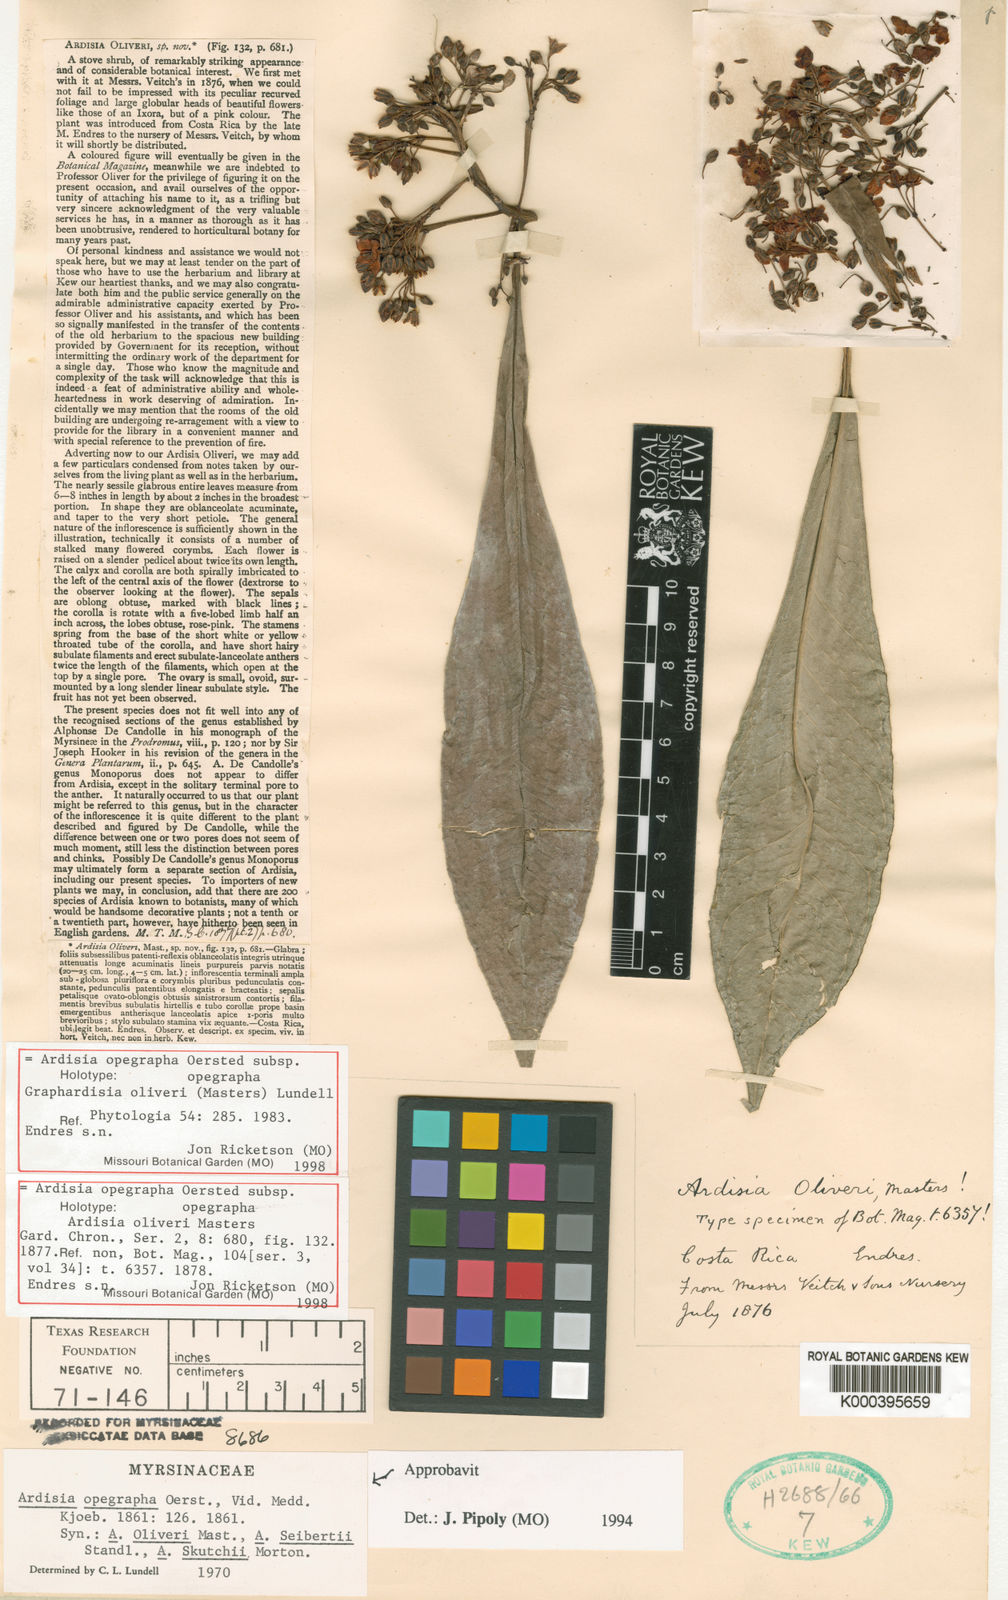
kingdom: Plantae
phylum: Tracheophyta
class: Magnoliopsida
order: Ericales
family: Primulaceae
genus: Ardisia
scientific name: Ardisia opegrapha
